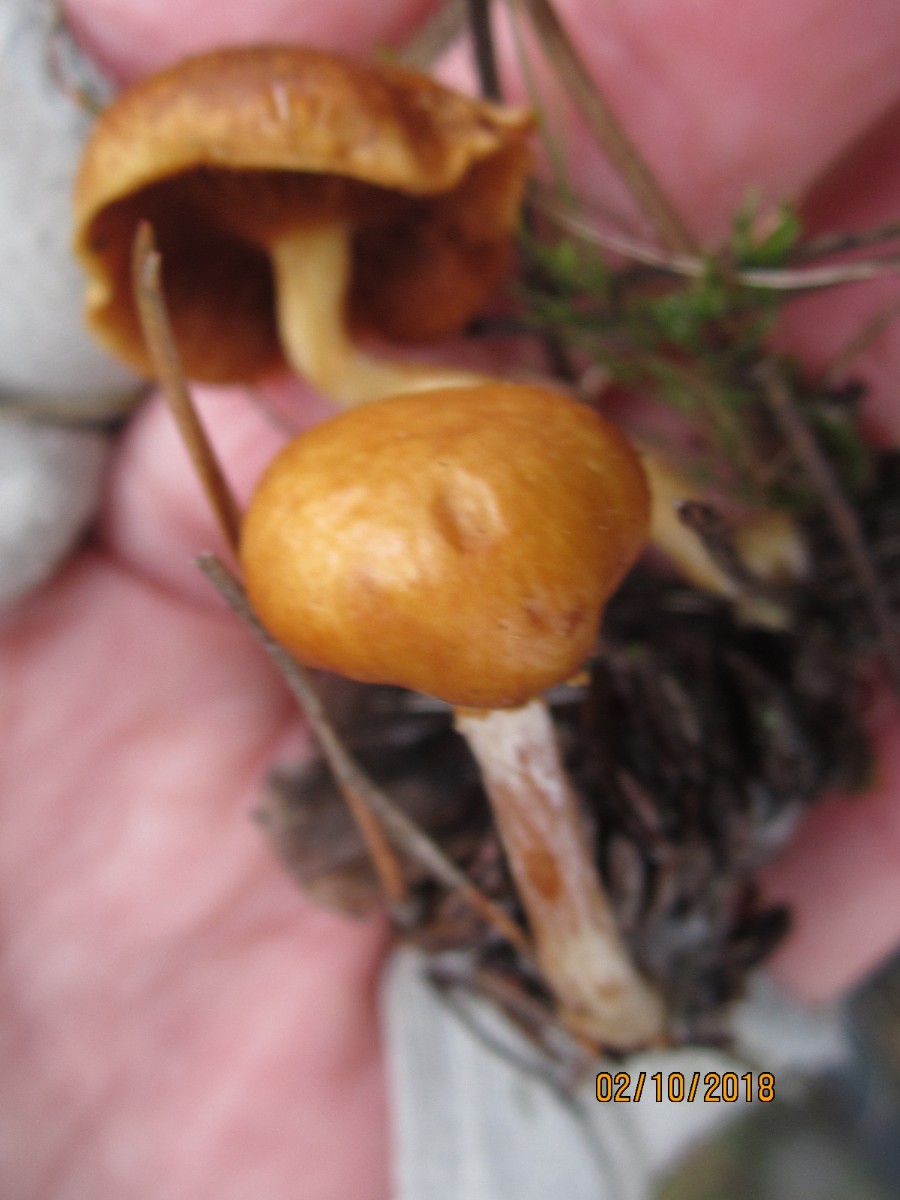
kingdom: Fungi
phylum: Basidiomycota
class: Agaricomycetes
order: Agaricales
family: Hymenogastraceae
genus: Gymnopilus
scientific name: Gymnopilus penetrans
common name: plettet flammehat
